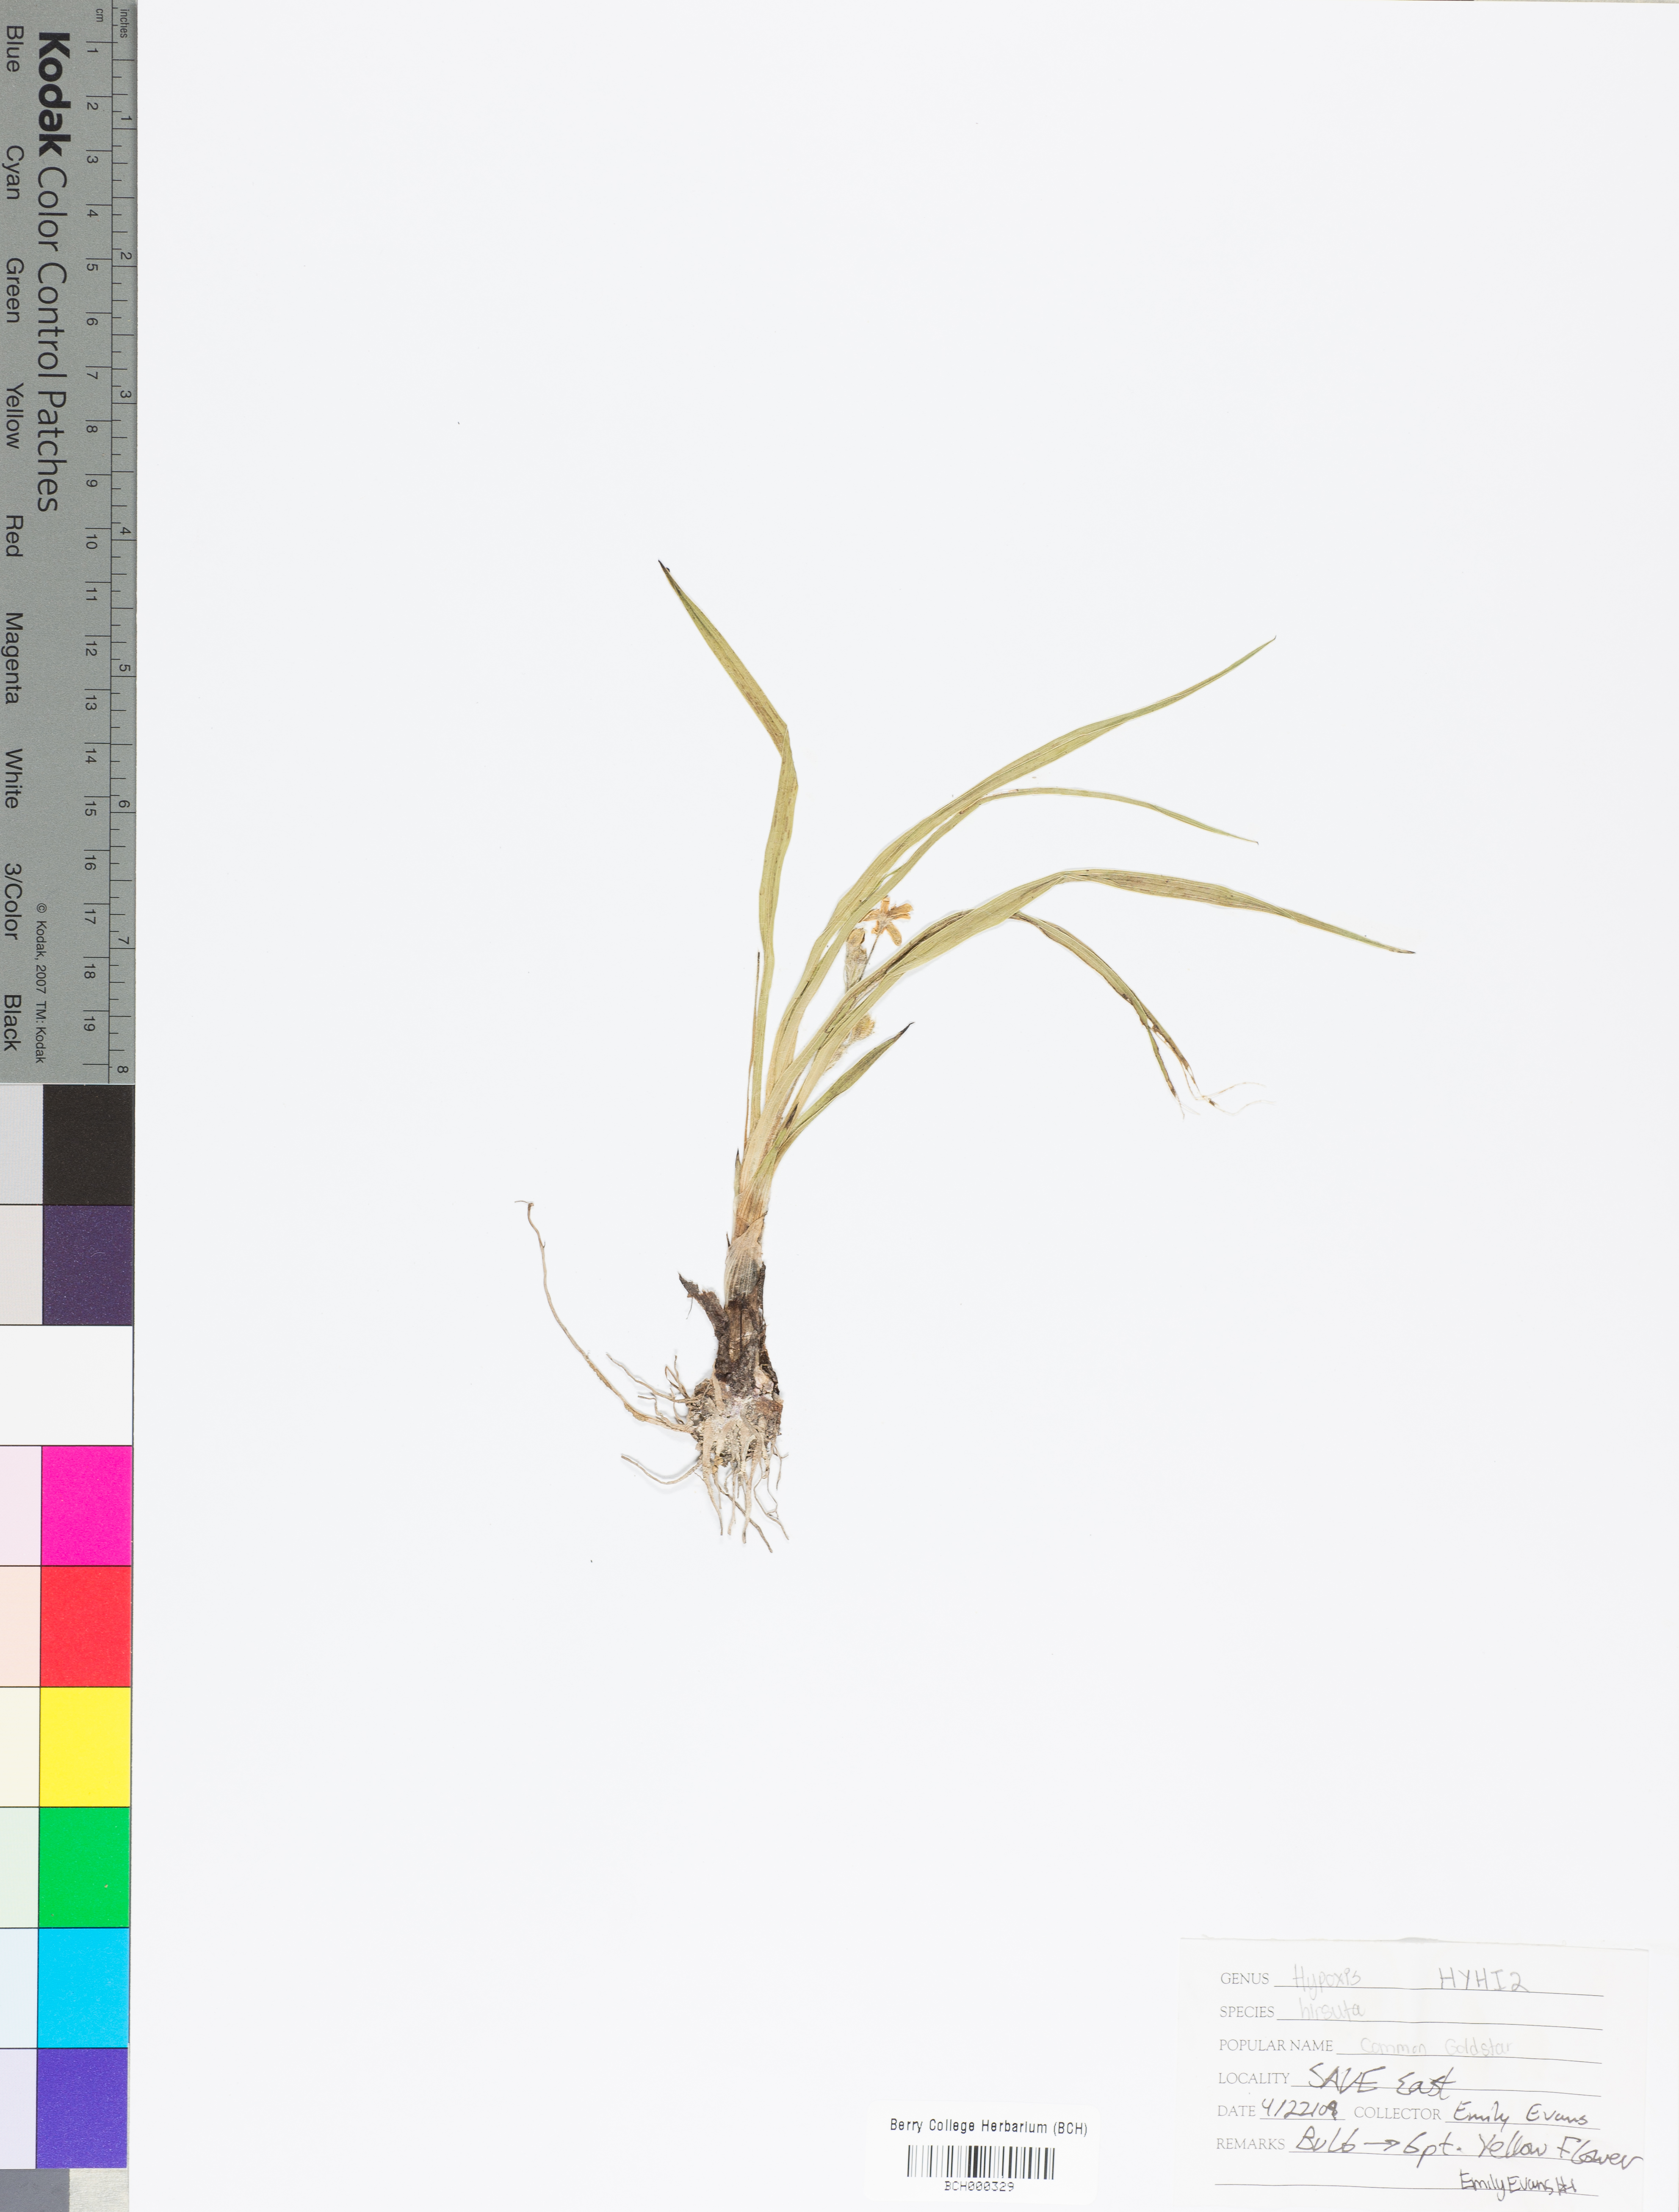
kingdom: Plantae
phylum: Tracheophyta
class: Liliopsida
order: Asparagales
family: Hypoxidaceae
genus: Hypoxis
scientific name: Hypoxis hirsuta
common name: Common goldstar
